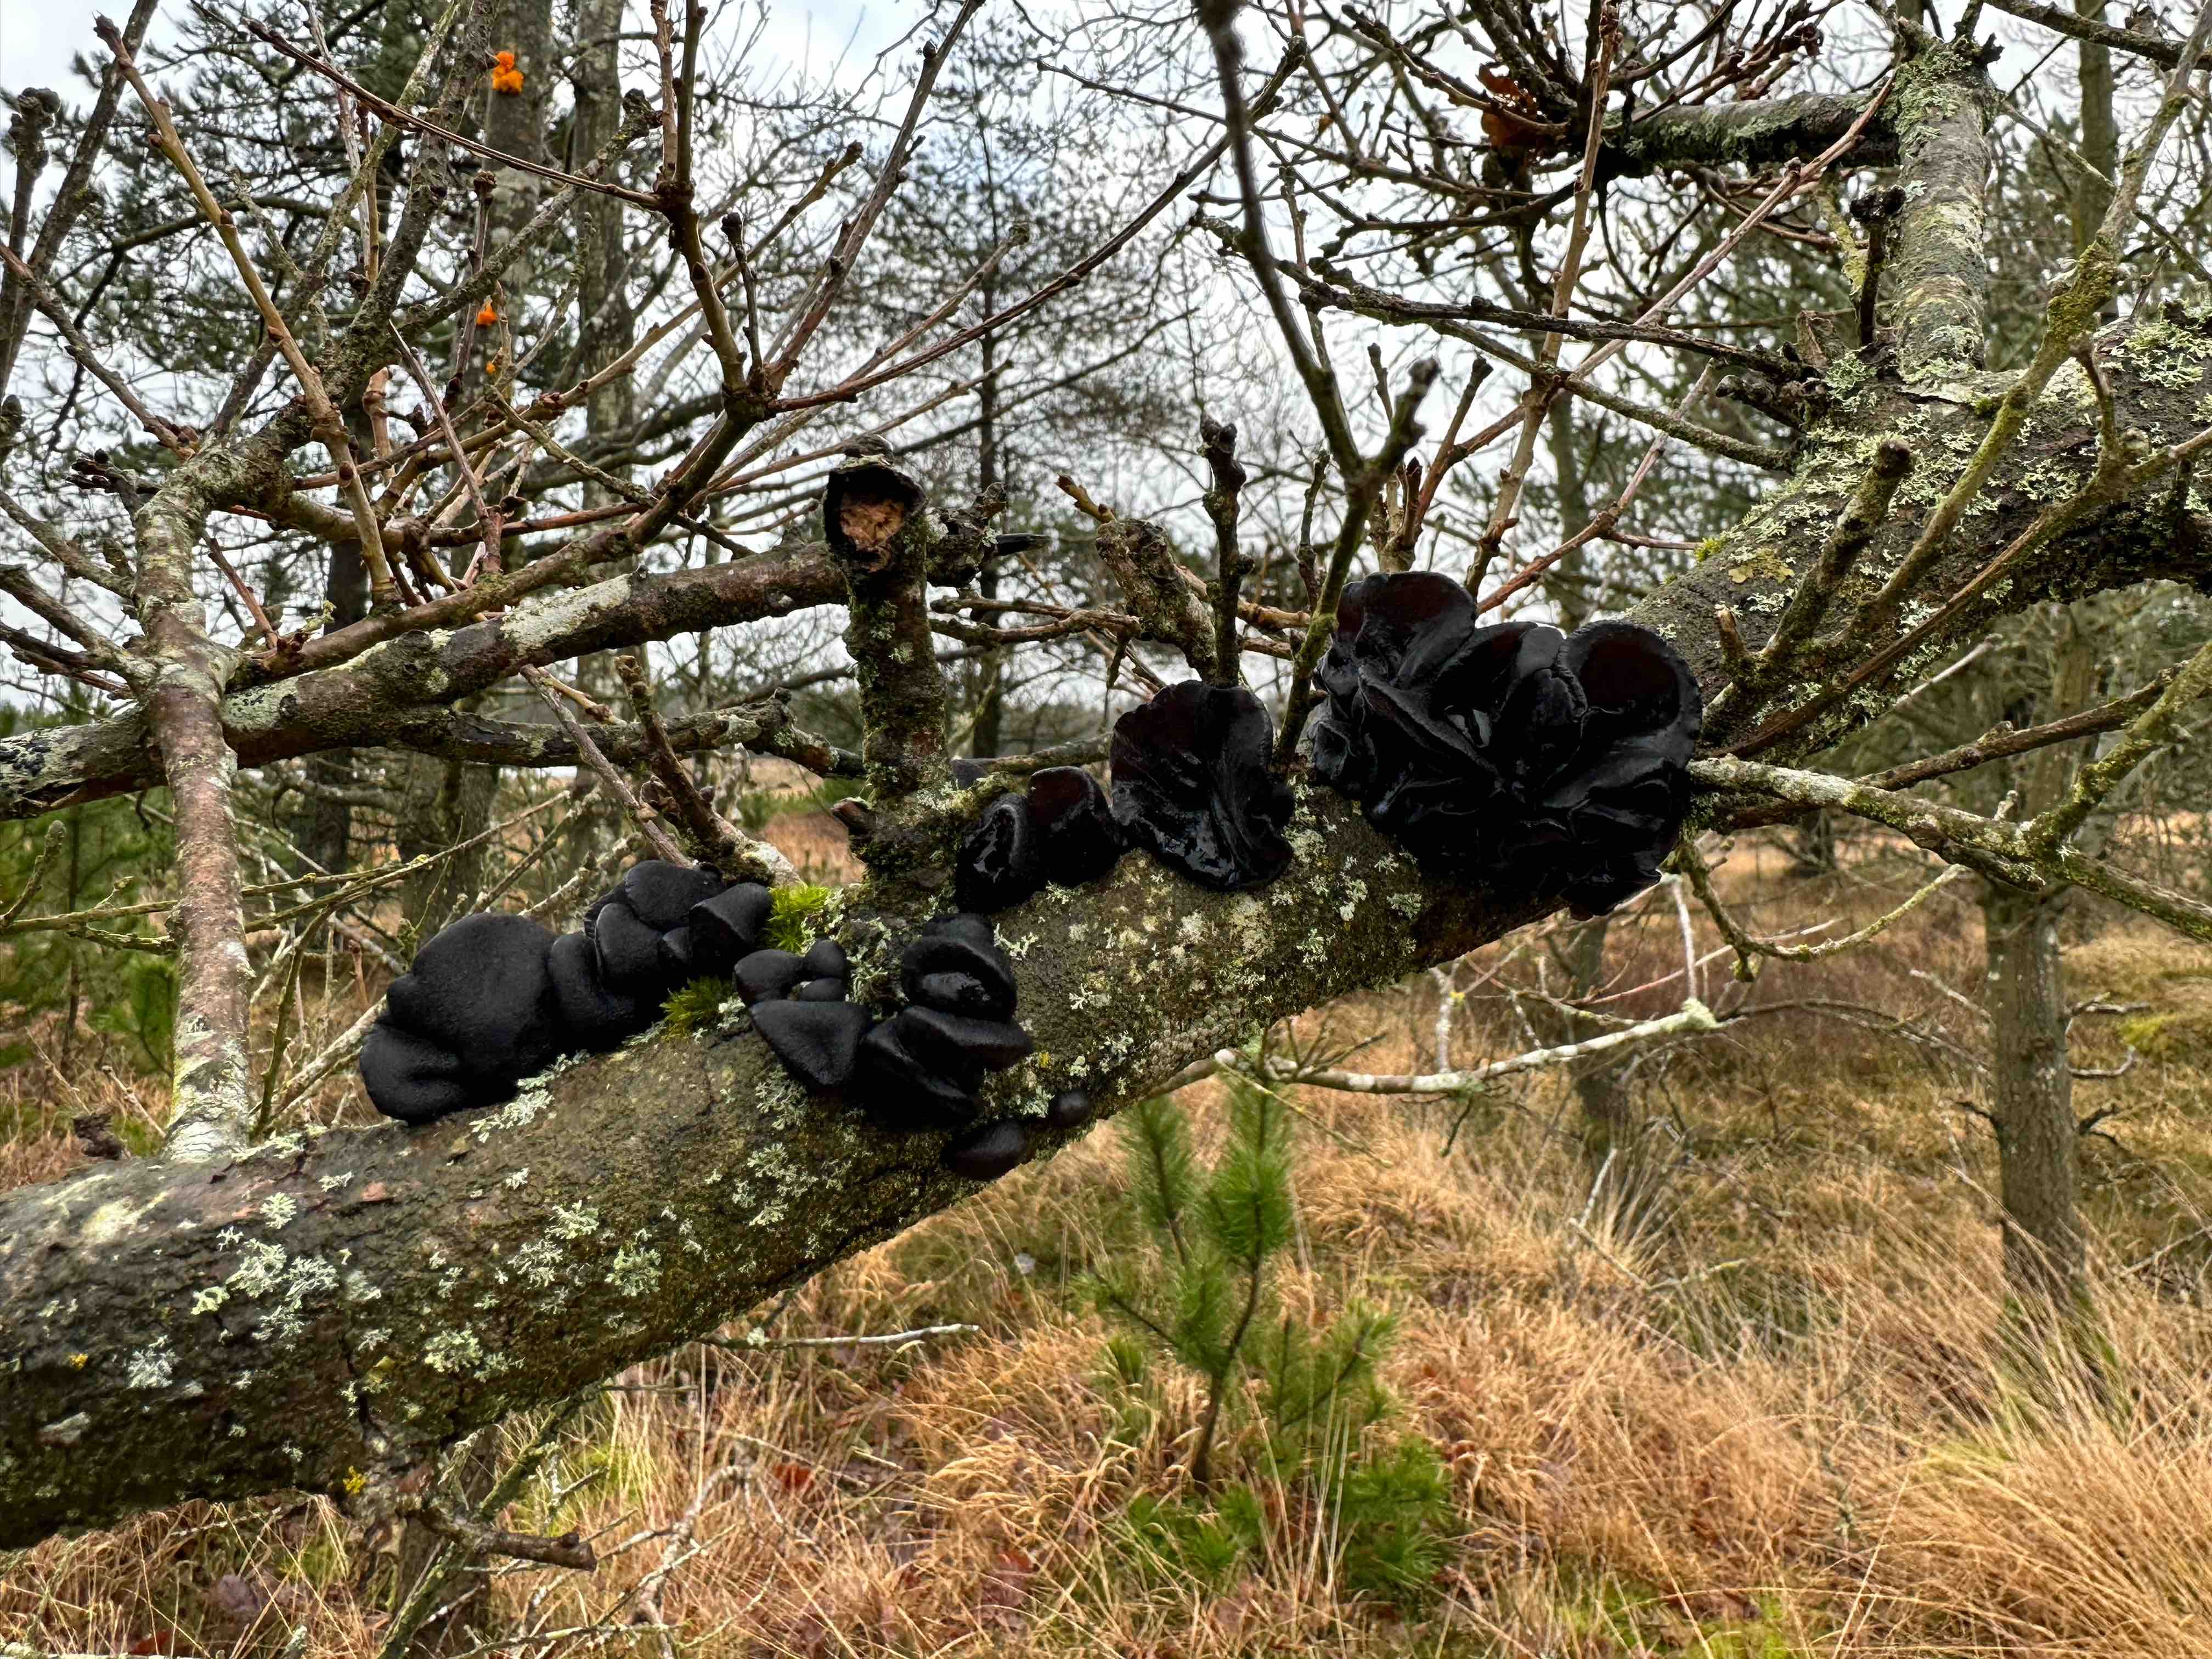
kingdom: Fungi
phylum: Basidiomycota
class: Agaricomycetes
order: Auriculariales
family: Auriculariaceae
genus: Exidia
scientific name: Exidia glandulosa
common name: ege-bævretop
